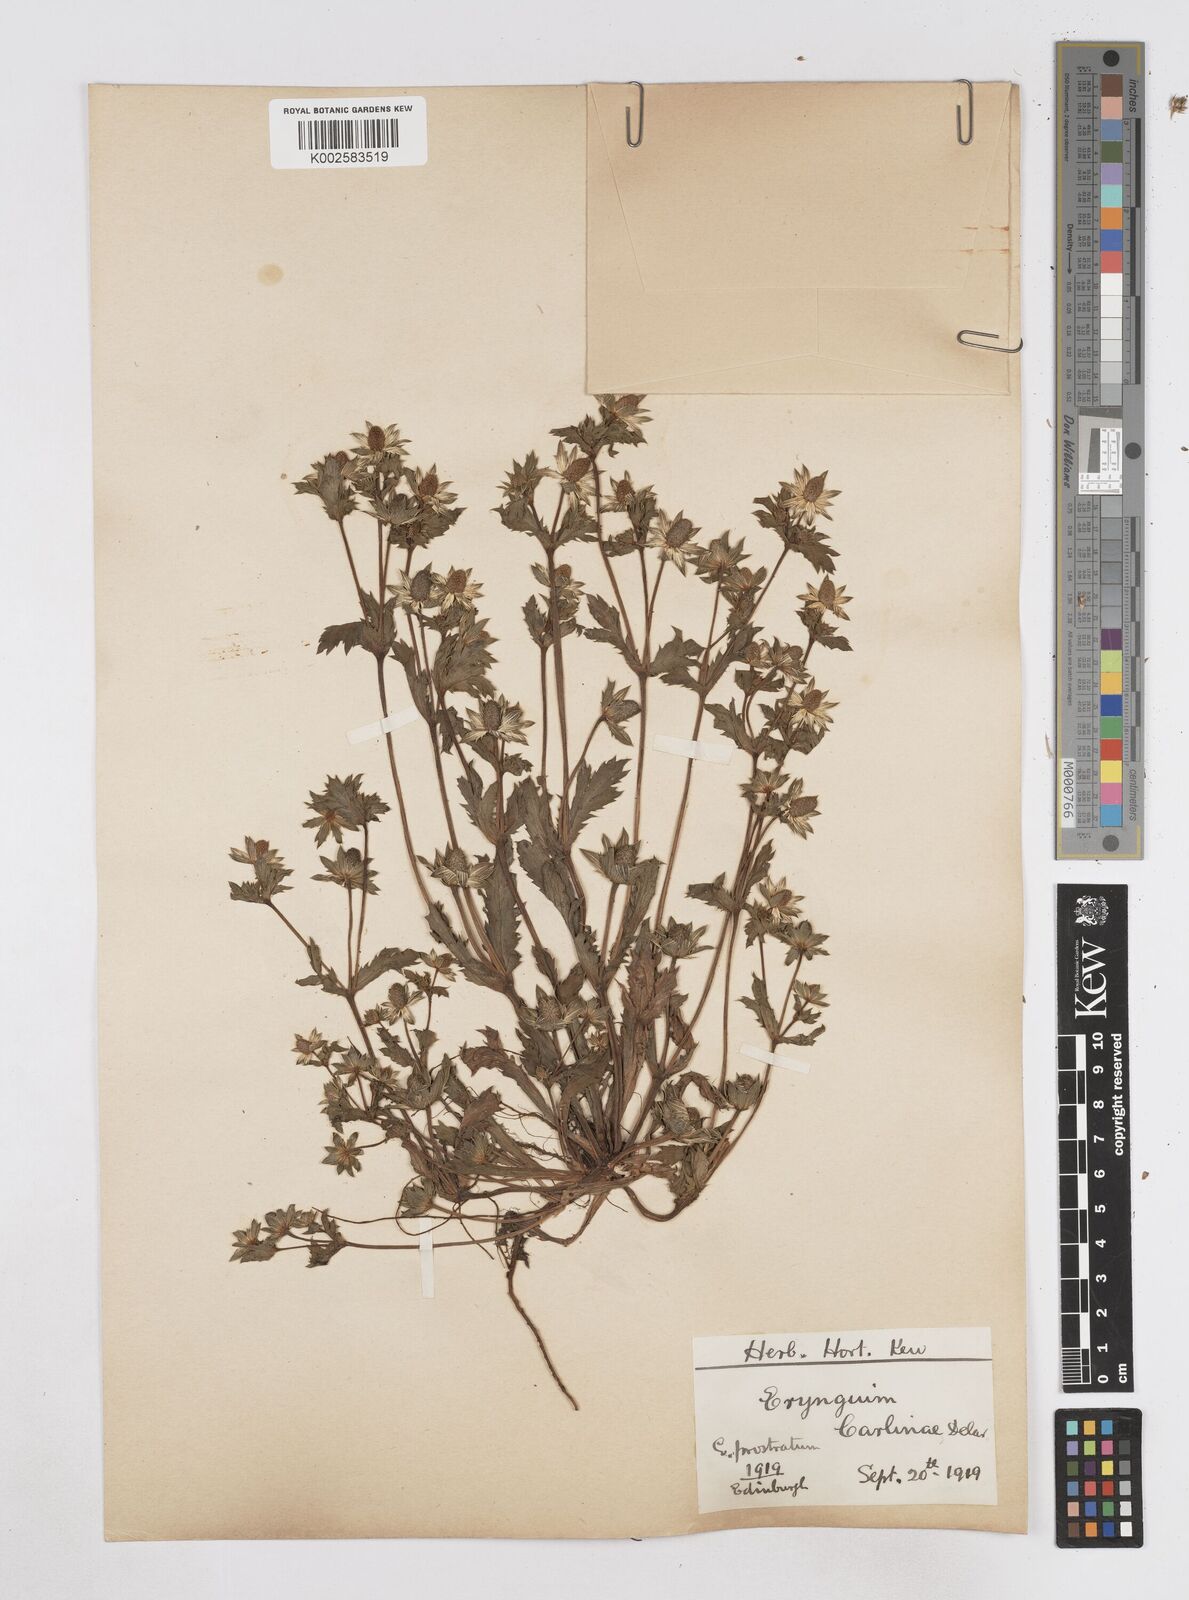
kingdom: Plantae
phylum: Tracheophyta
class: Magnoliopsida
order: Apiales
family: Apiaceae
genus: Eryngium
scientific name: Eryngium carlinae
